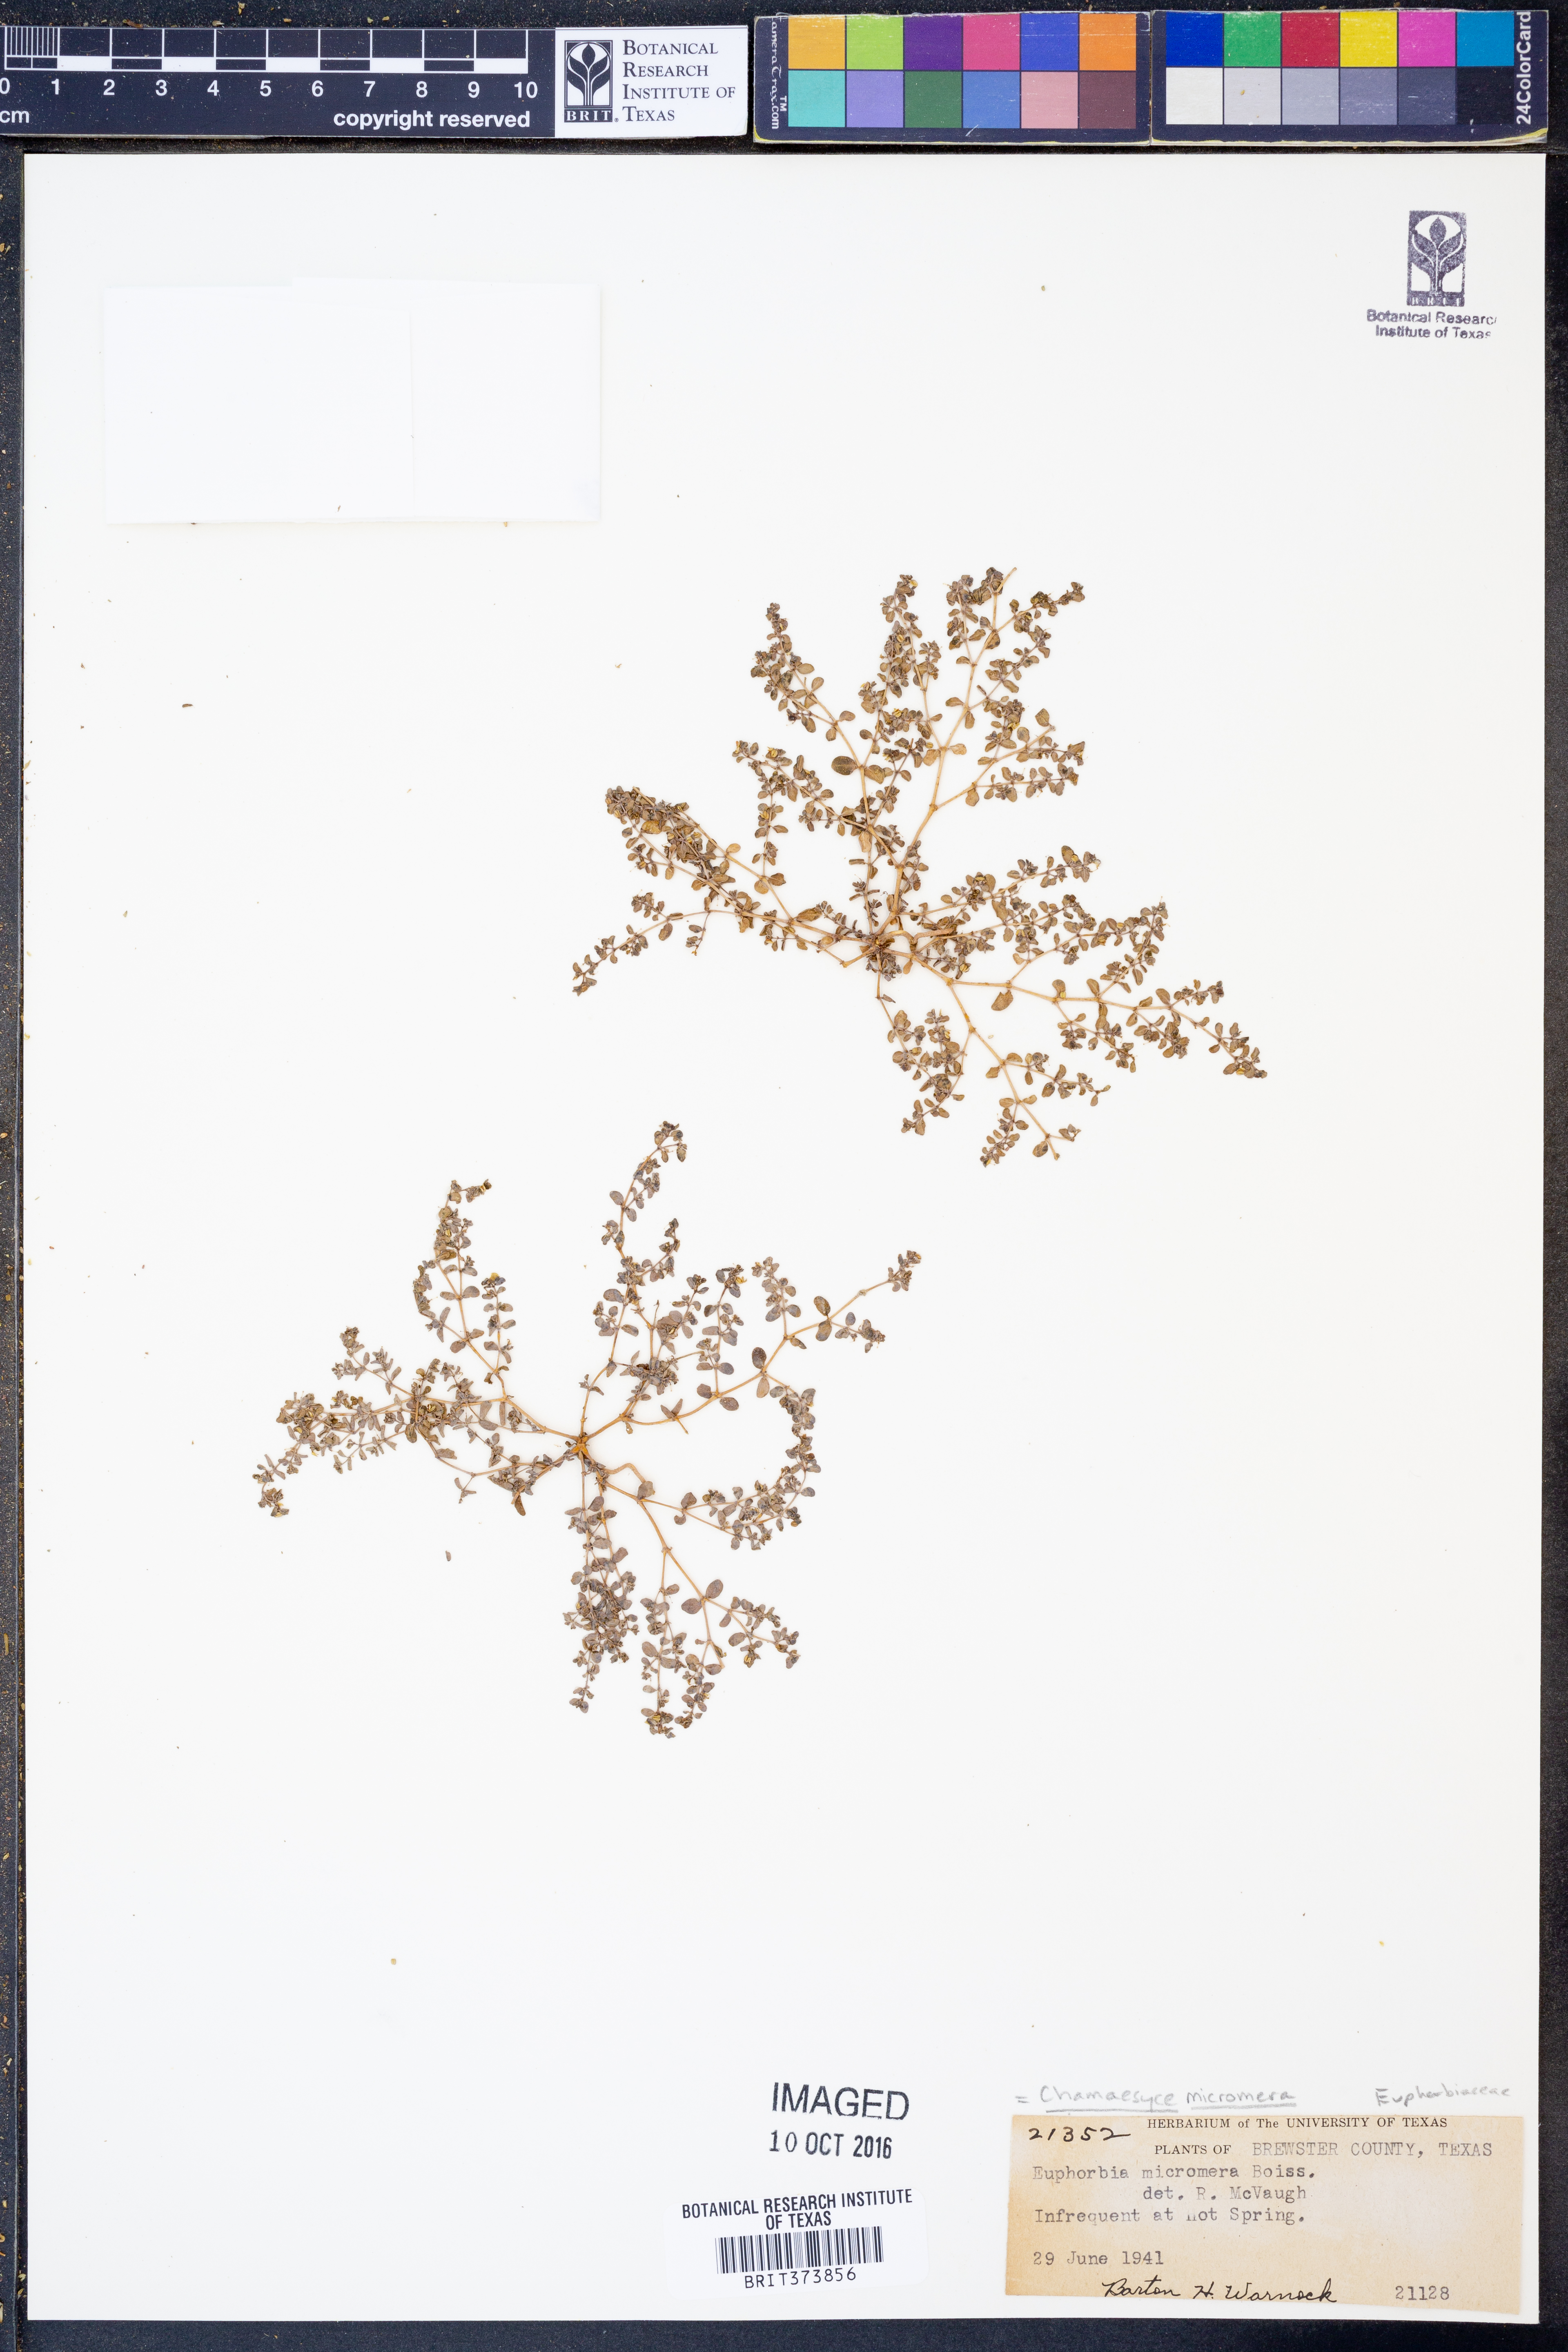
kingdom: Plantae
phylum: Tracheophyta
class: Magnoliopsida
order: Malpighiales
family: Euphorbiaceae
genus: Euphorbia
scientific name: Euphorbia micromera
